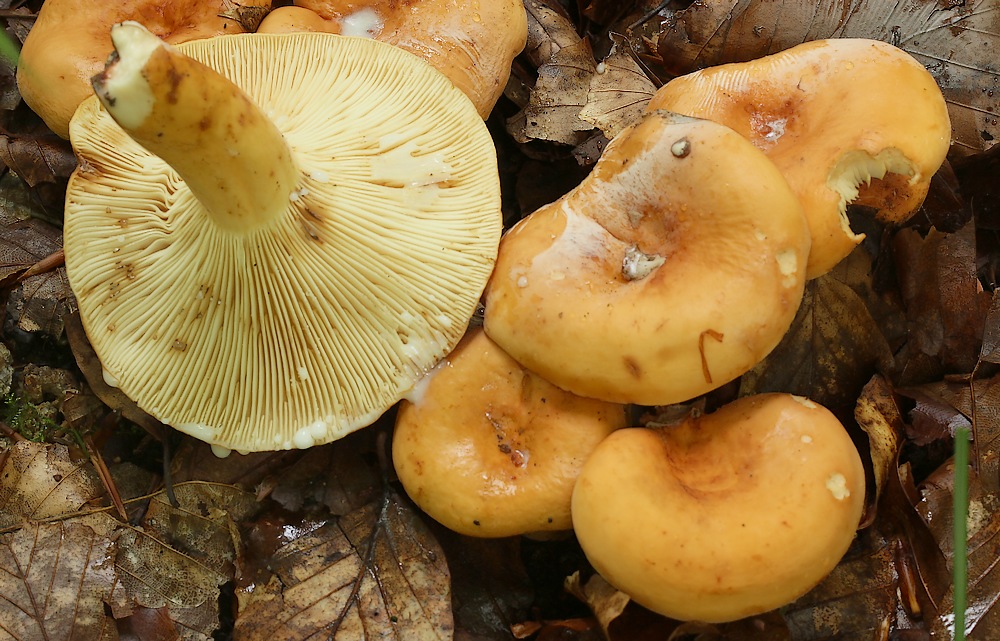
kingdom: Fungi
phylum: Basidiomycota
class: Agaricomycetes
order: Russulales
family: Russulaceae
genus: Lactifluus
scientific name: Lactifluus subvolemus
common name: hummer-mælkehat
